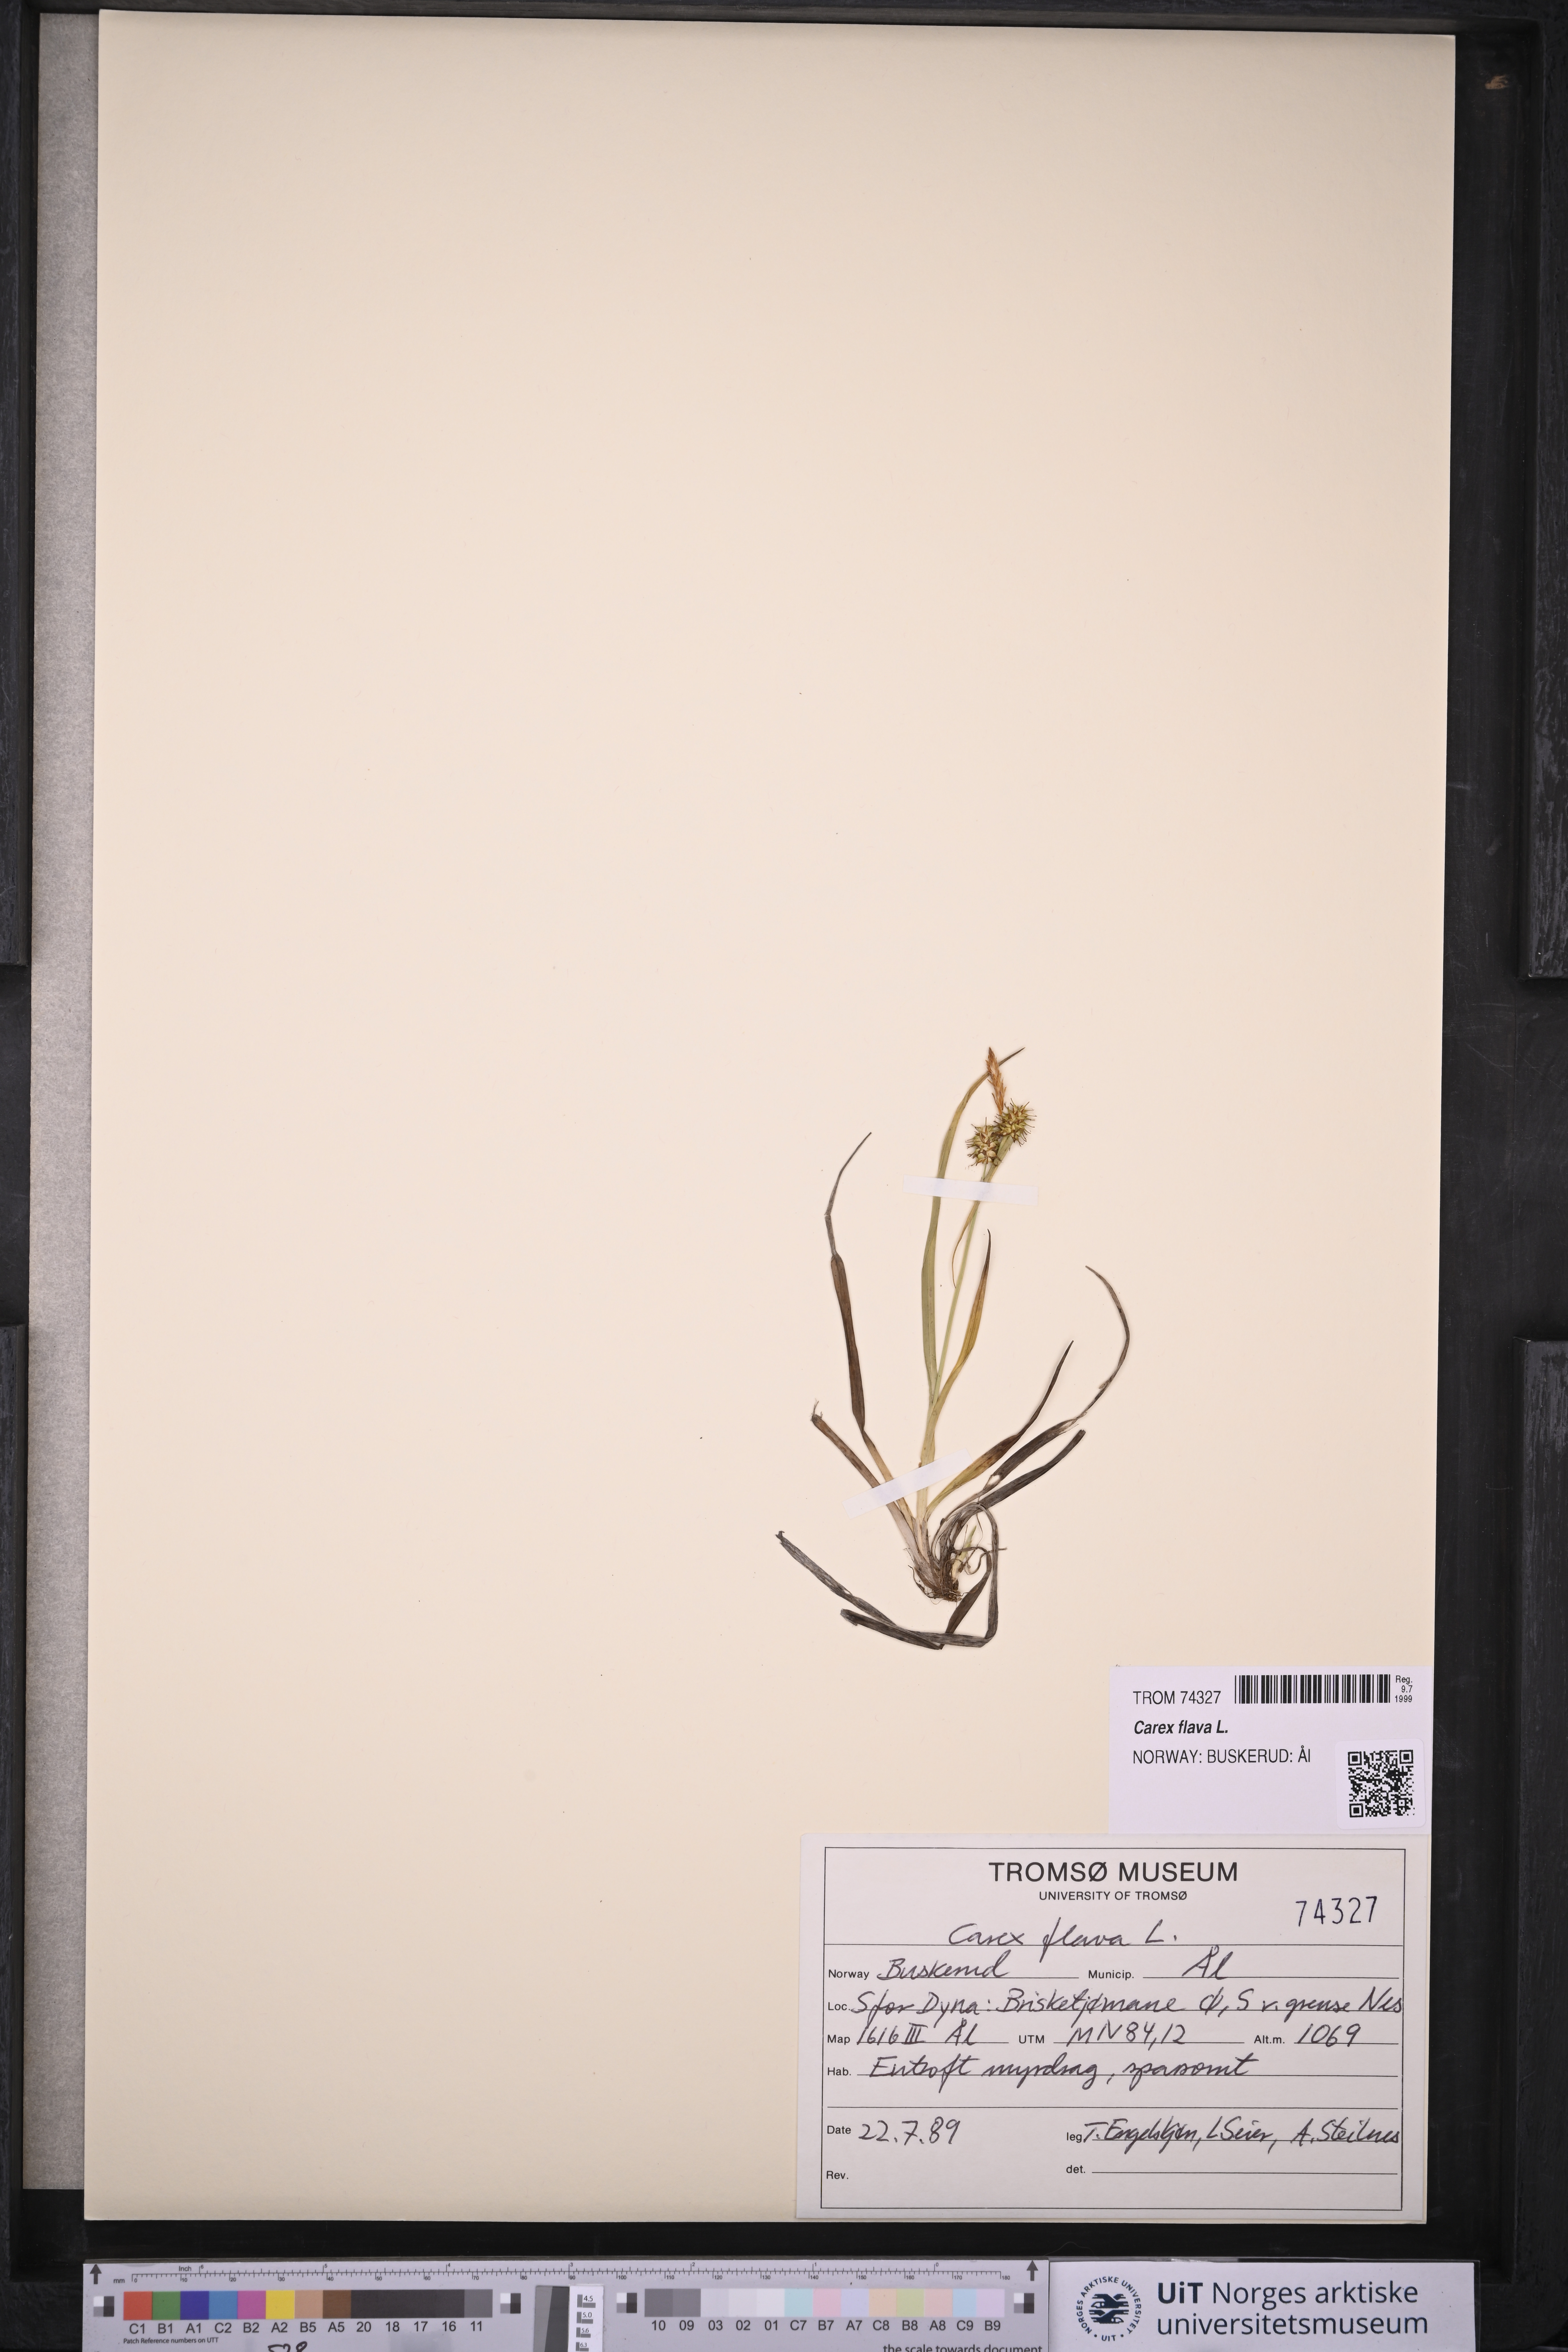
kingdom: Plantae
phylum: Tracheophyta
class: Liliopsida
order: Poales
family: Cyperaceae
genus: Carex
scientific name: Carex flava
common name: Large yellow-sedge
